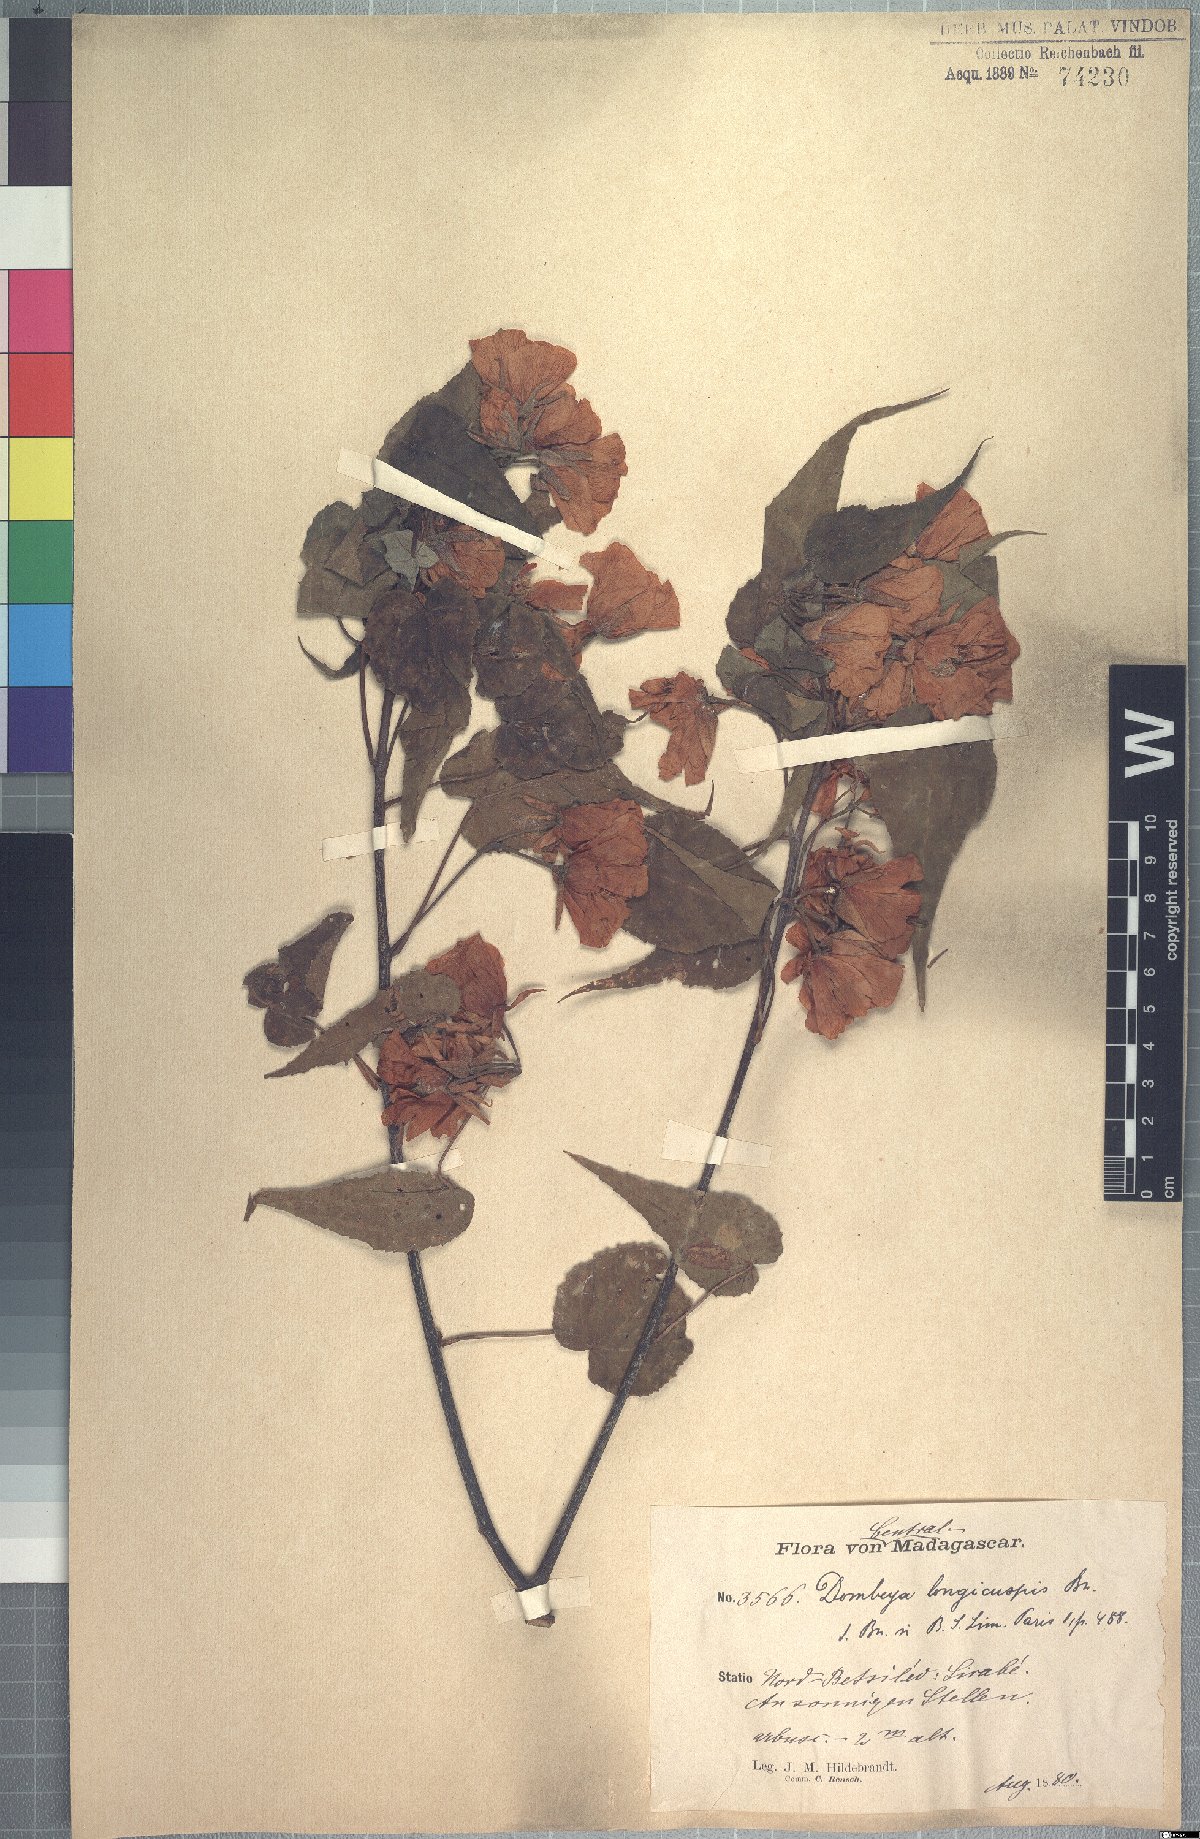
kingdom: Plantae
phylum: Tracheophyta
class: Magnoliopsida
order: Malvales
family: Malvaceae
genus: Dombeya
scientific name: Dombeya longicuspis
